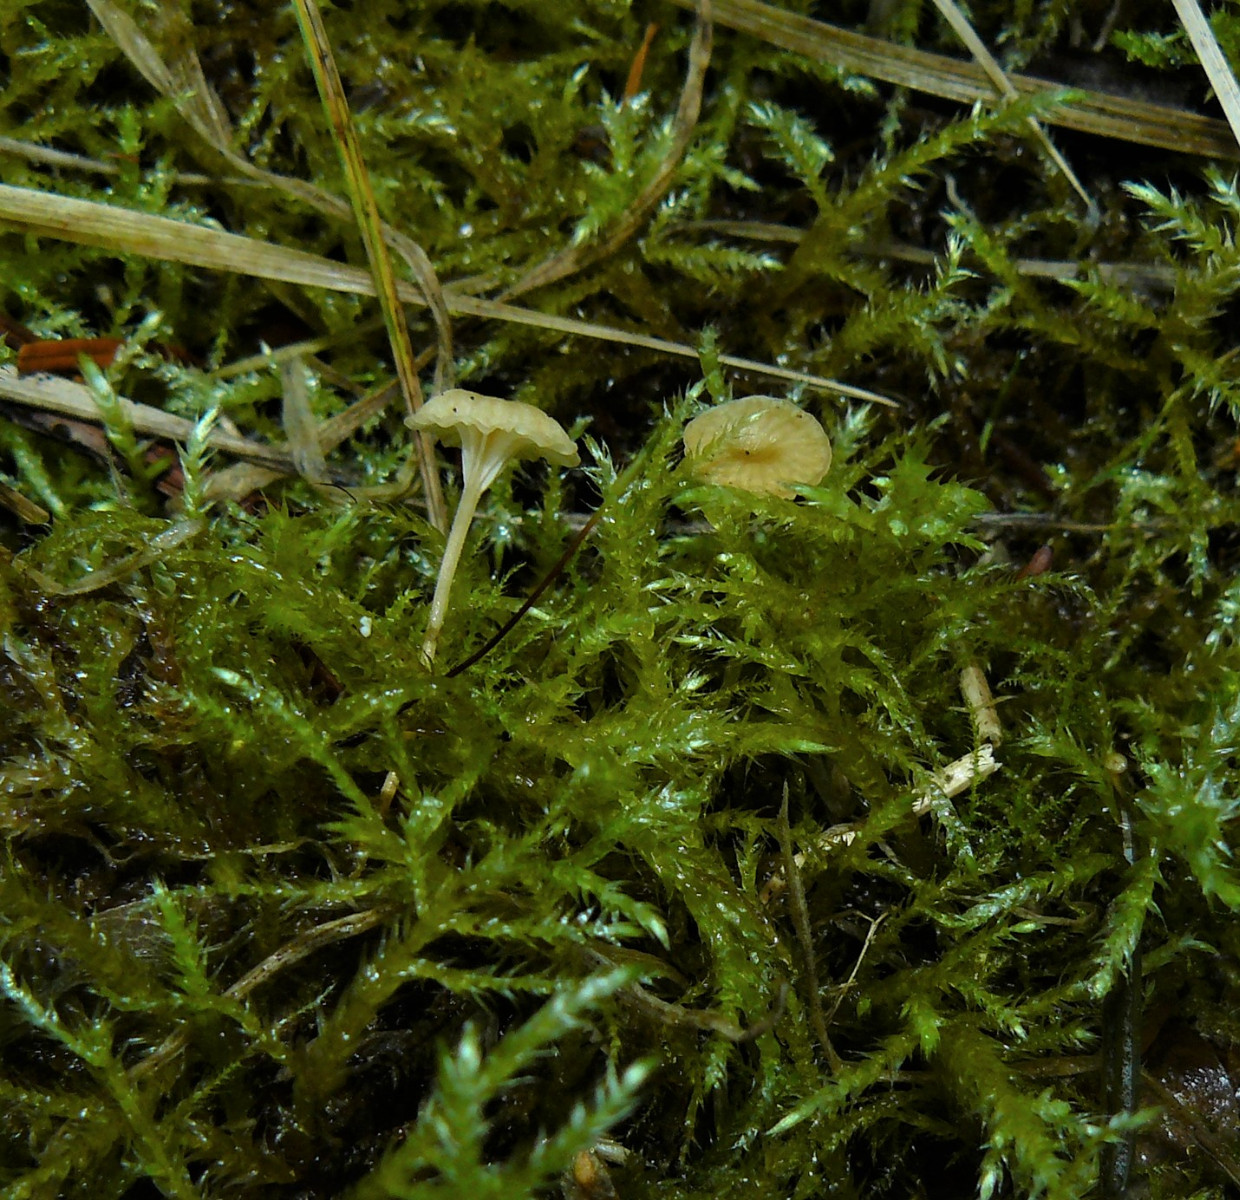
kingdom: Fungi
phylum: Basidiomycota
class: Agaricomycetes
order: Hymenochaetales
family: Rickenellaceae
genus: Rickenella
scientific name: Rickenella fibula
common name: orange mosnavlehat
